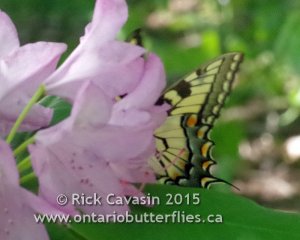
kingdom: Animalia
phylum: Arthropoda
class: Insecta
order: Lepidoptera
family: Papilionidae
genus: Pterourus
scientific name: Pterourus glaucus
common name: Eastern Tiger Swallowtail
